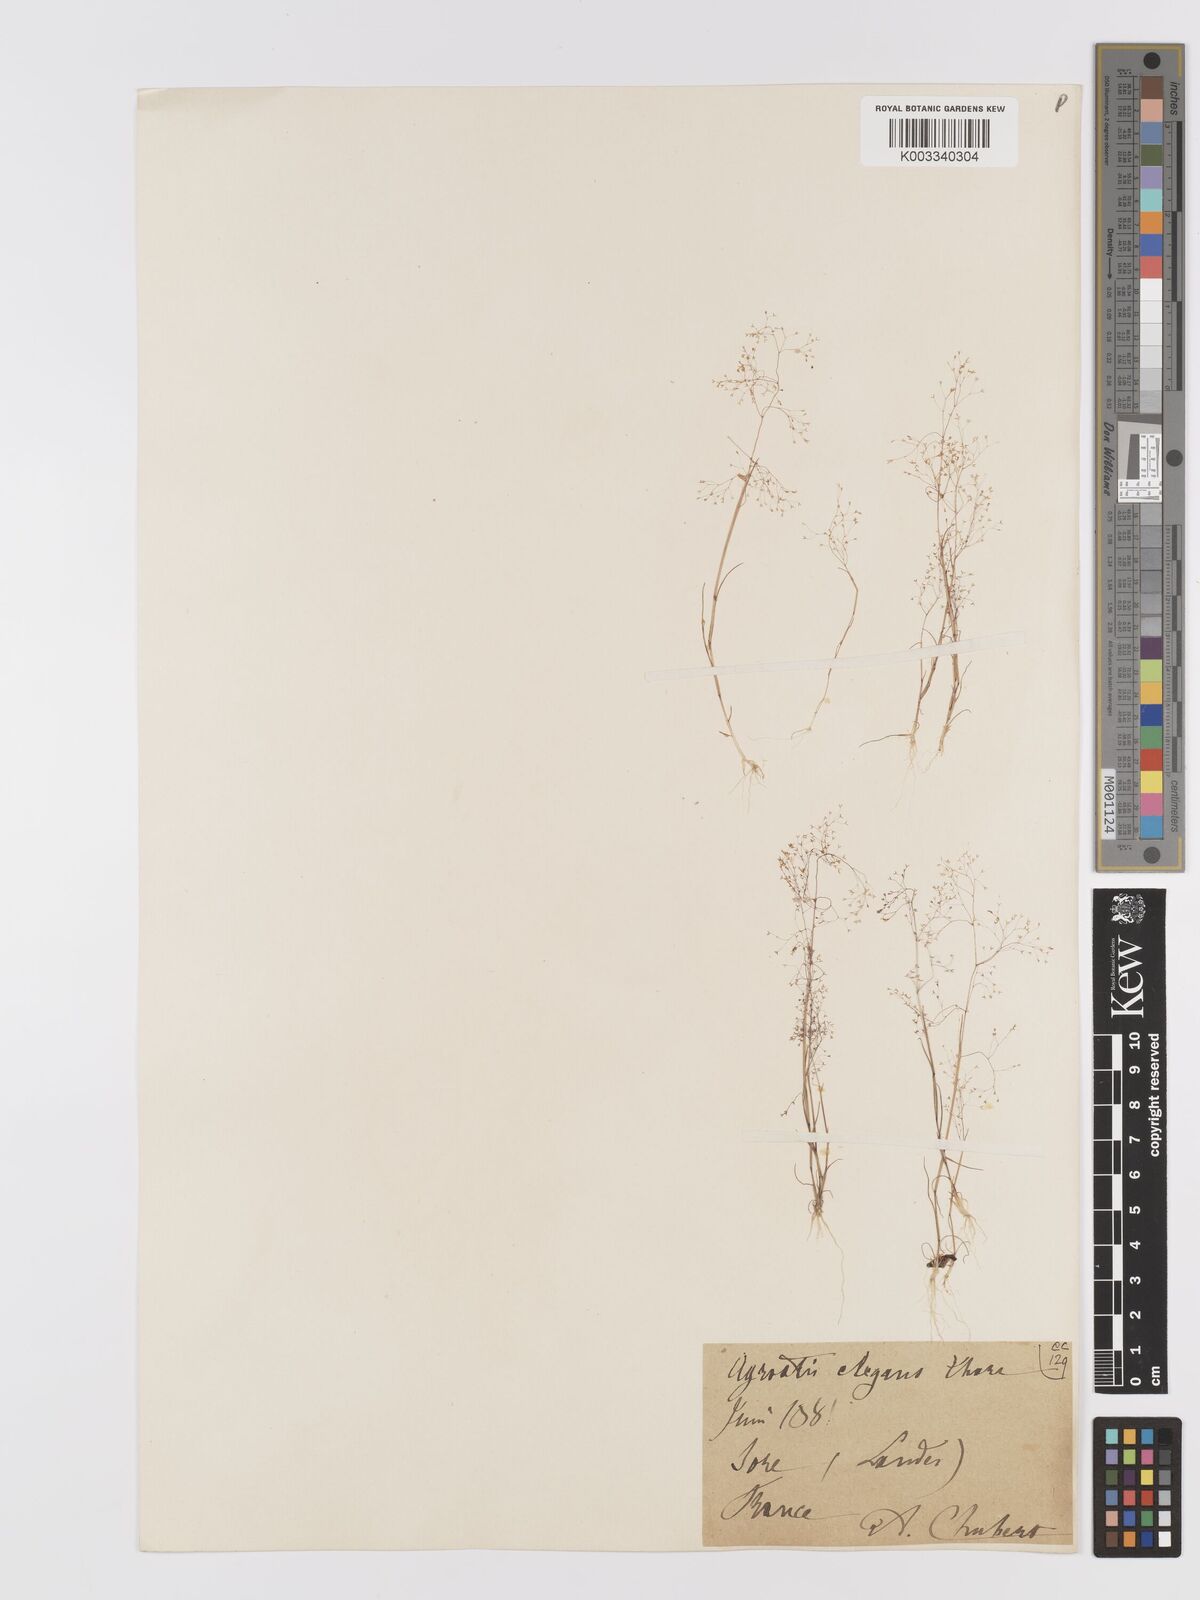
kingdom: Plantae
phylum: Tracheophyta
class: Liliopsida
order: Poales
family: Poaceae
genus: Agrostis
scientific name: Agrostis tenerrima
